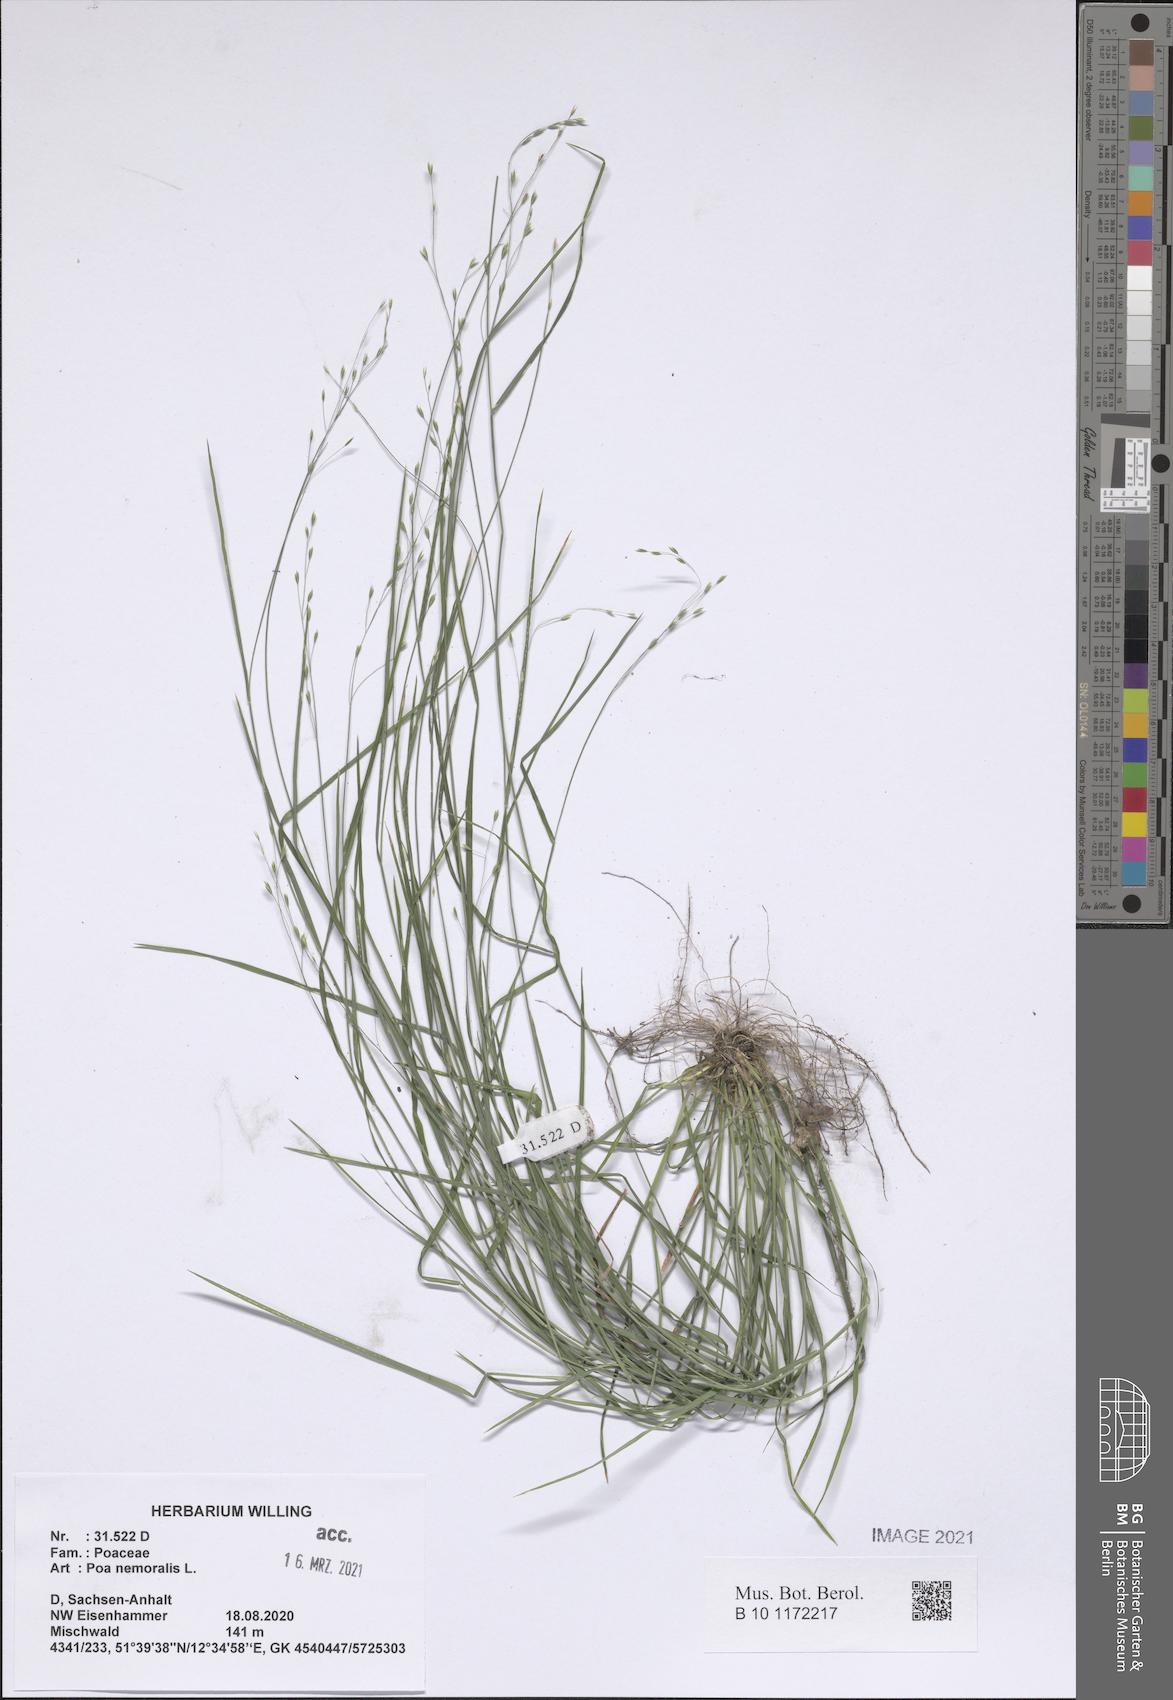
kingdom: Plantae
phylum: Tracheophyta
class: Liliopsida
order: Poales
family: Poaceae
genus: Poa
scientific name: Poa nemoralis
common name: Wood bluegrass
